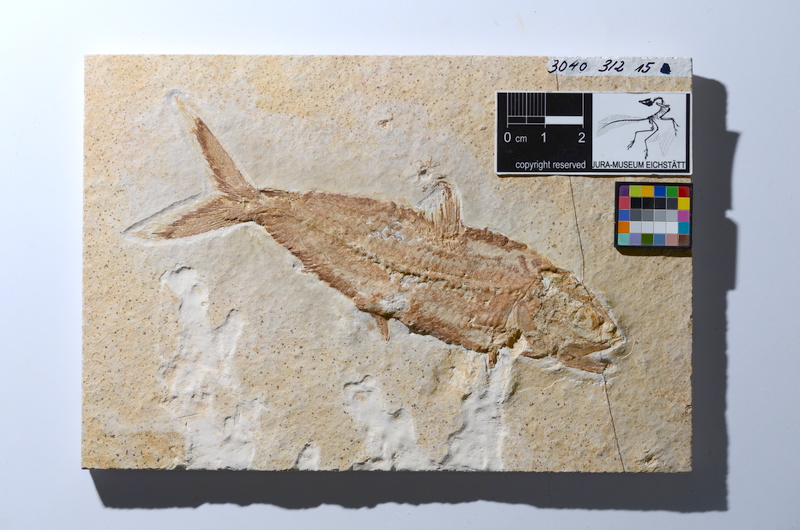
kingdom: Animalia
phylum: Chordata
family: Ankylophoridae
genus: Pholidophoristion
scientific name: Pholidophoristion micronyx
